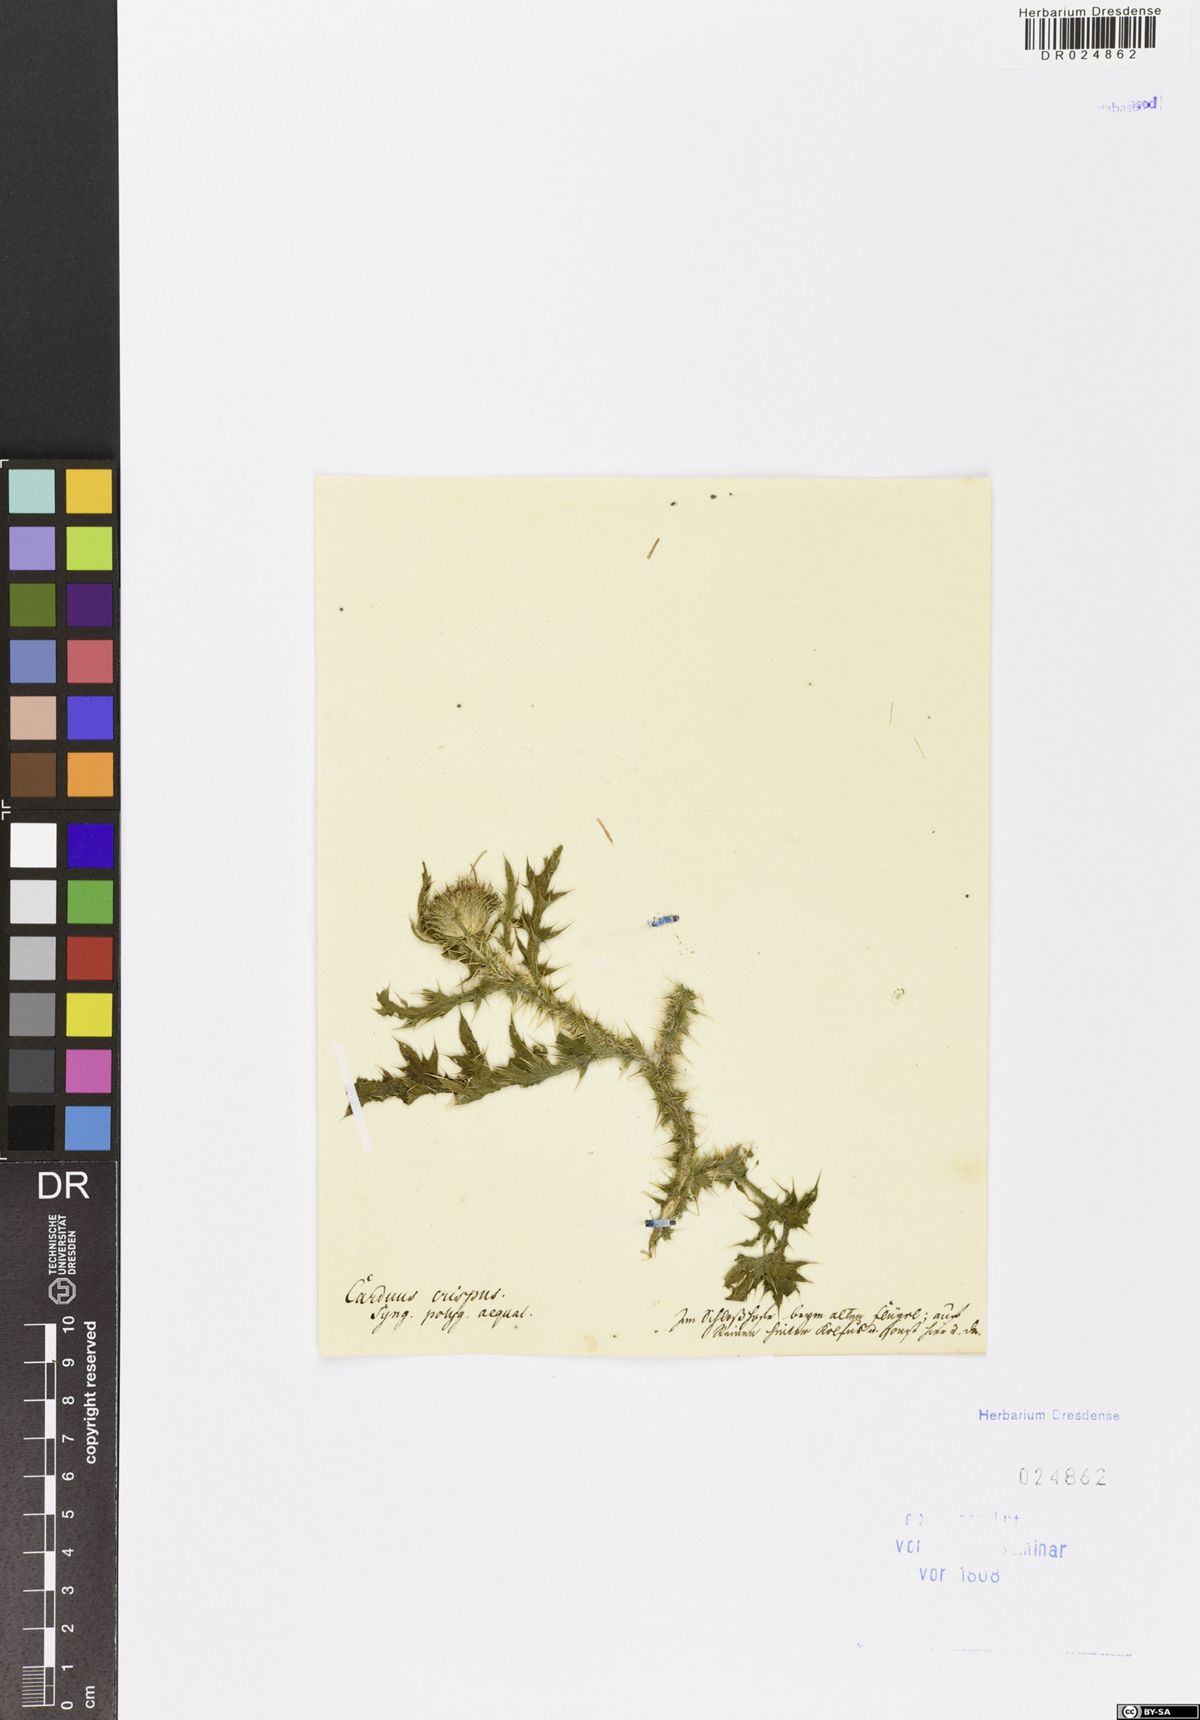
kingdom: Plantae
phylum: Tracheophyta
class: Magnoliopsida
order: Asterales
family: Asteraceae
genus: Carduus
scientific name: Carduus acanthoides
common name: Plumeless thistle
